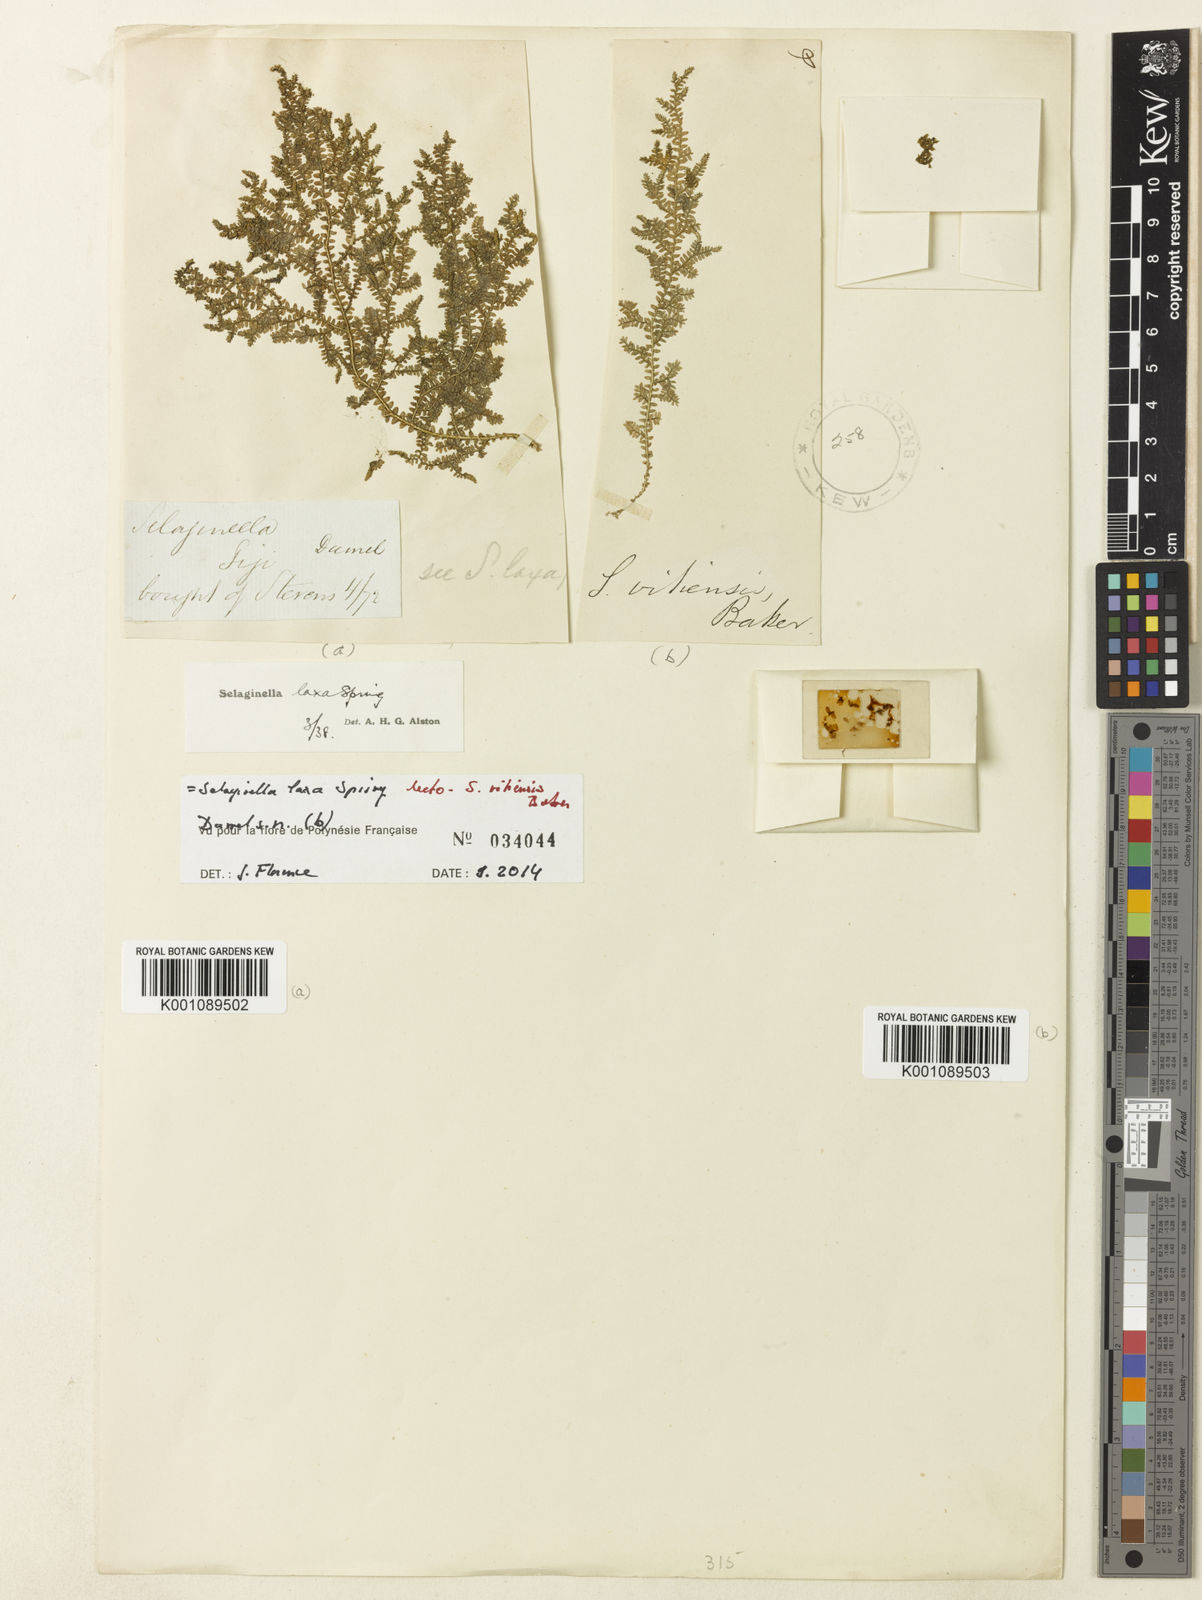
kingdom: Plantae
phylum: Tracheophyta
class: Lycopodiopsida
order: Selaginellales
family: Selaginellaceae
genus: Selaginella
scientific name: Selaginella laxa
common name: Lax spikemoss
